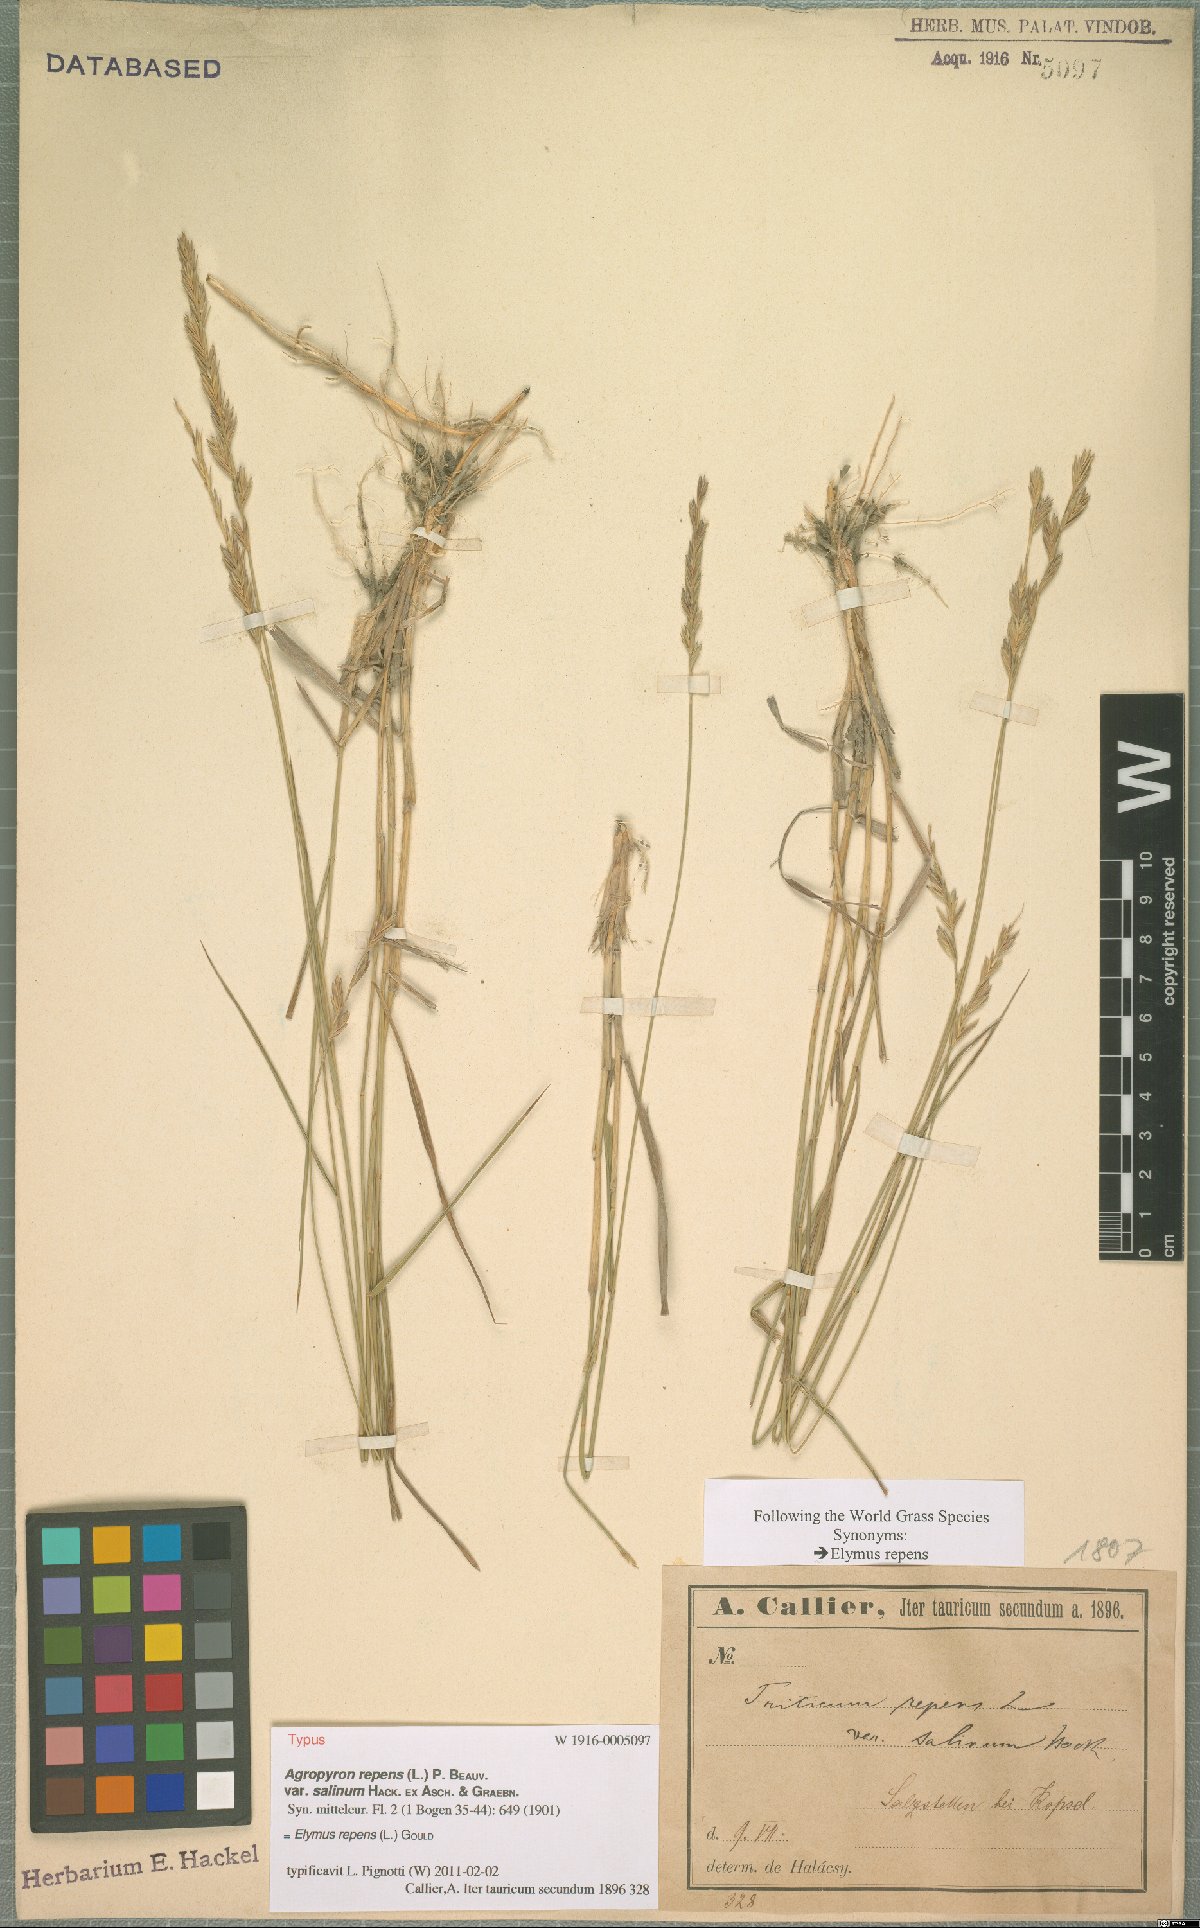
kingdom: Plantae
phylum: Tracheophyta
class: Liliopsida
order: Poales
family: Poaceae
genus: Elymus
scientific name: Elymus repens
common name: Quackgrass
